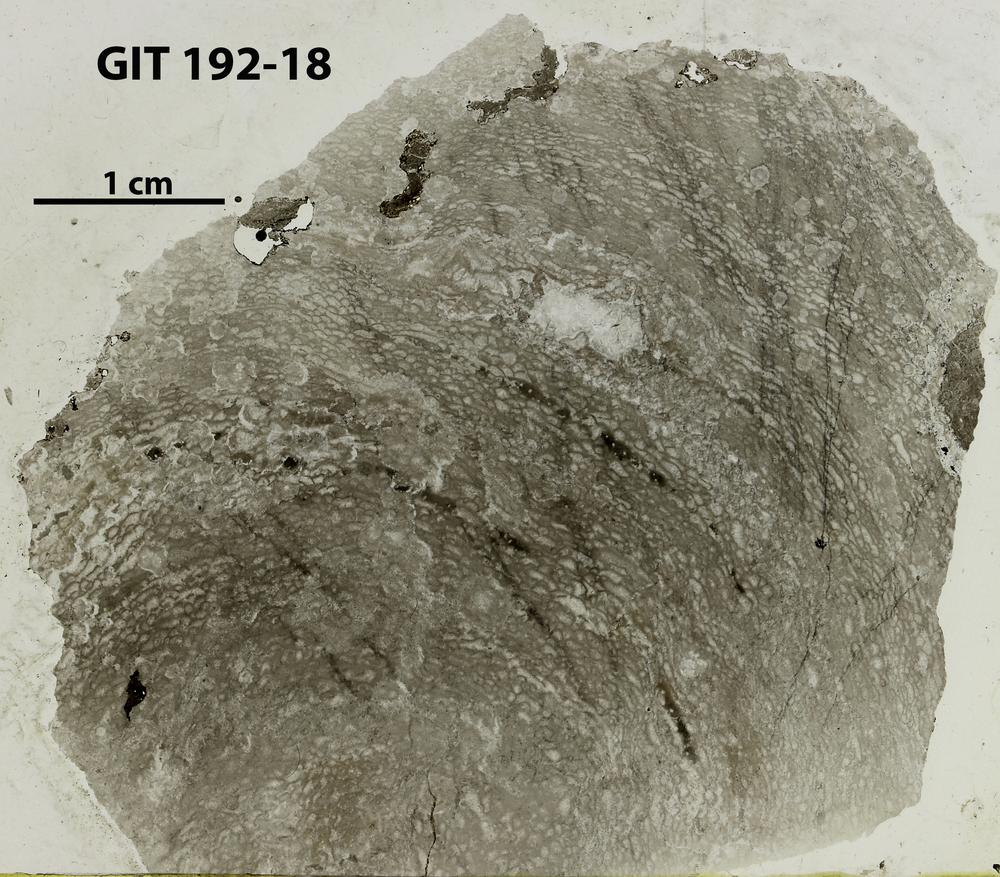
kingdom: Animalia
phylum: Porifera
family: Rosenellidae
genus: Forolinia
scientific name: Forolinia paka
